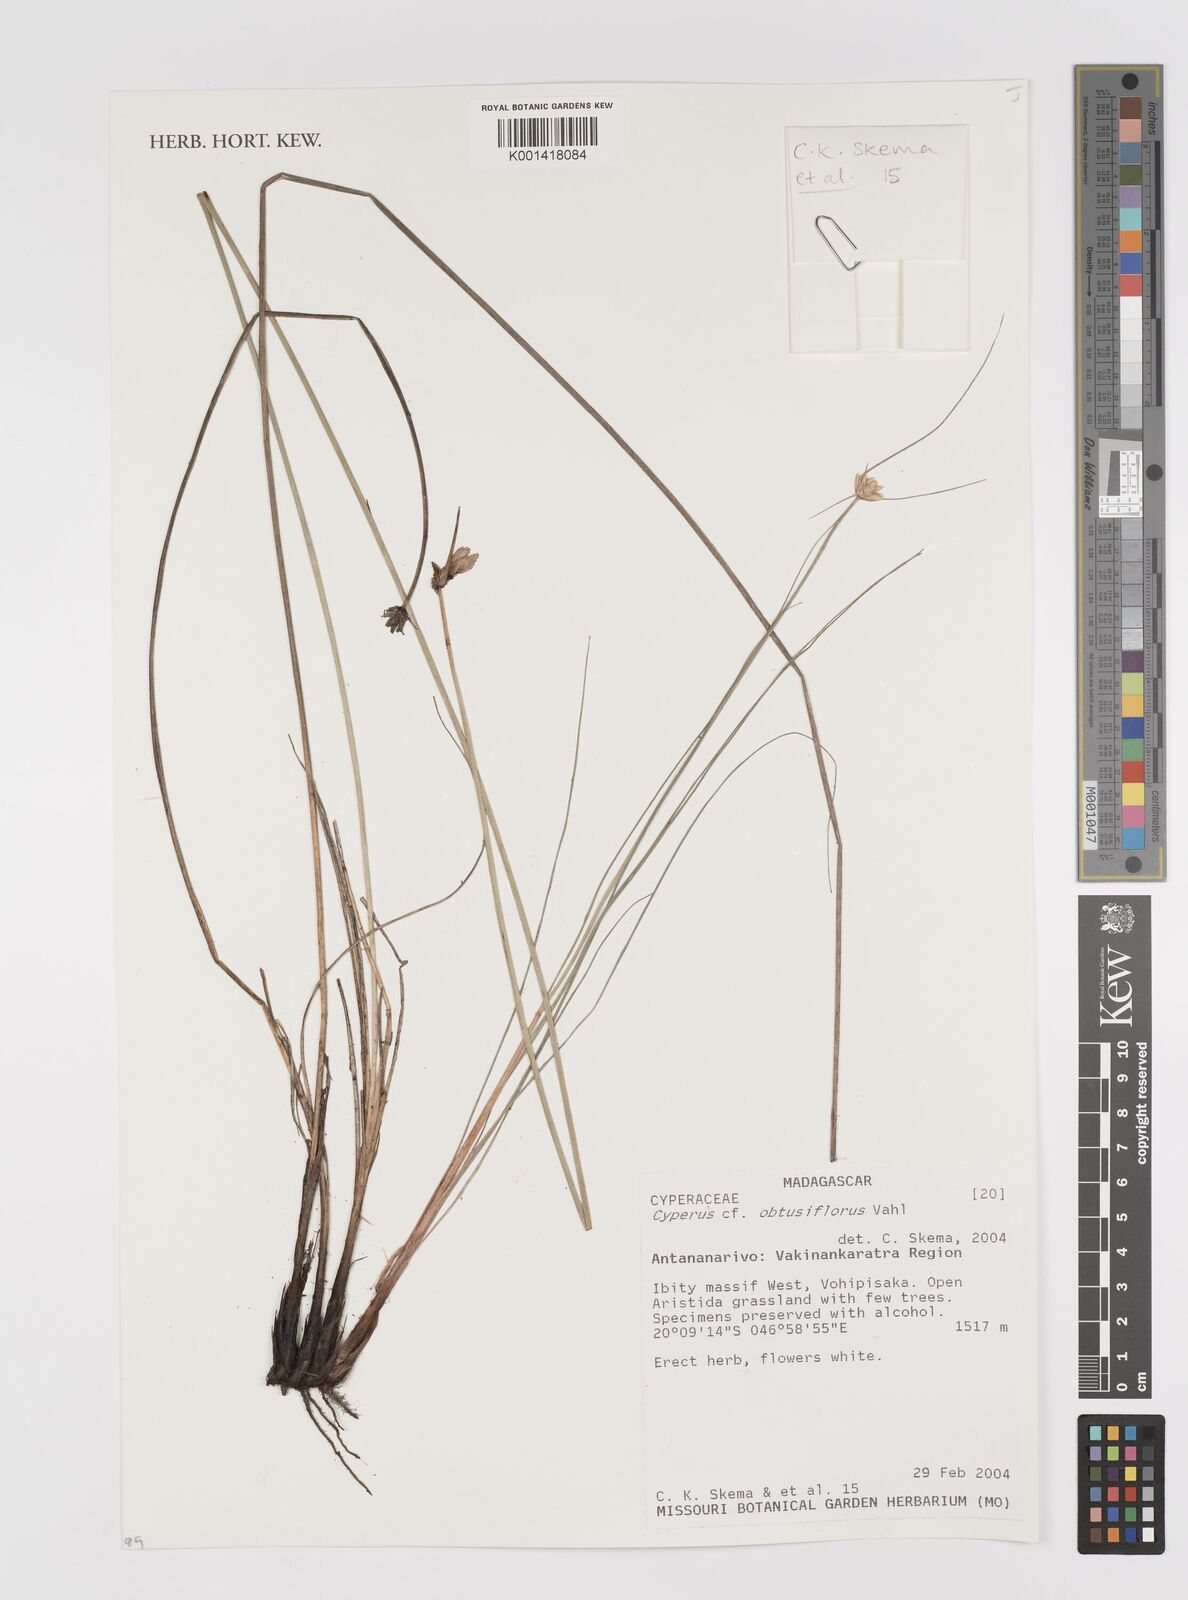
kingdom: Plantae
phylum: Tracheophyta
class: Liliopsida
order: Poales
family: Cyperaceae
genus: Cyperus
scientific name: Cyperus niveus
